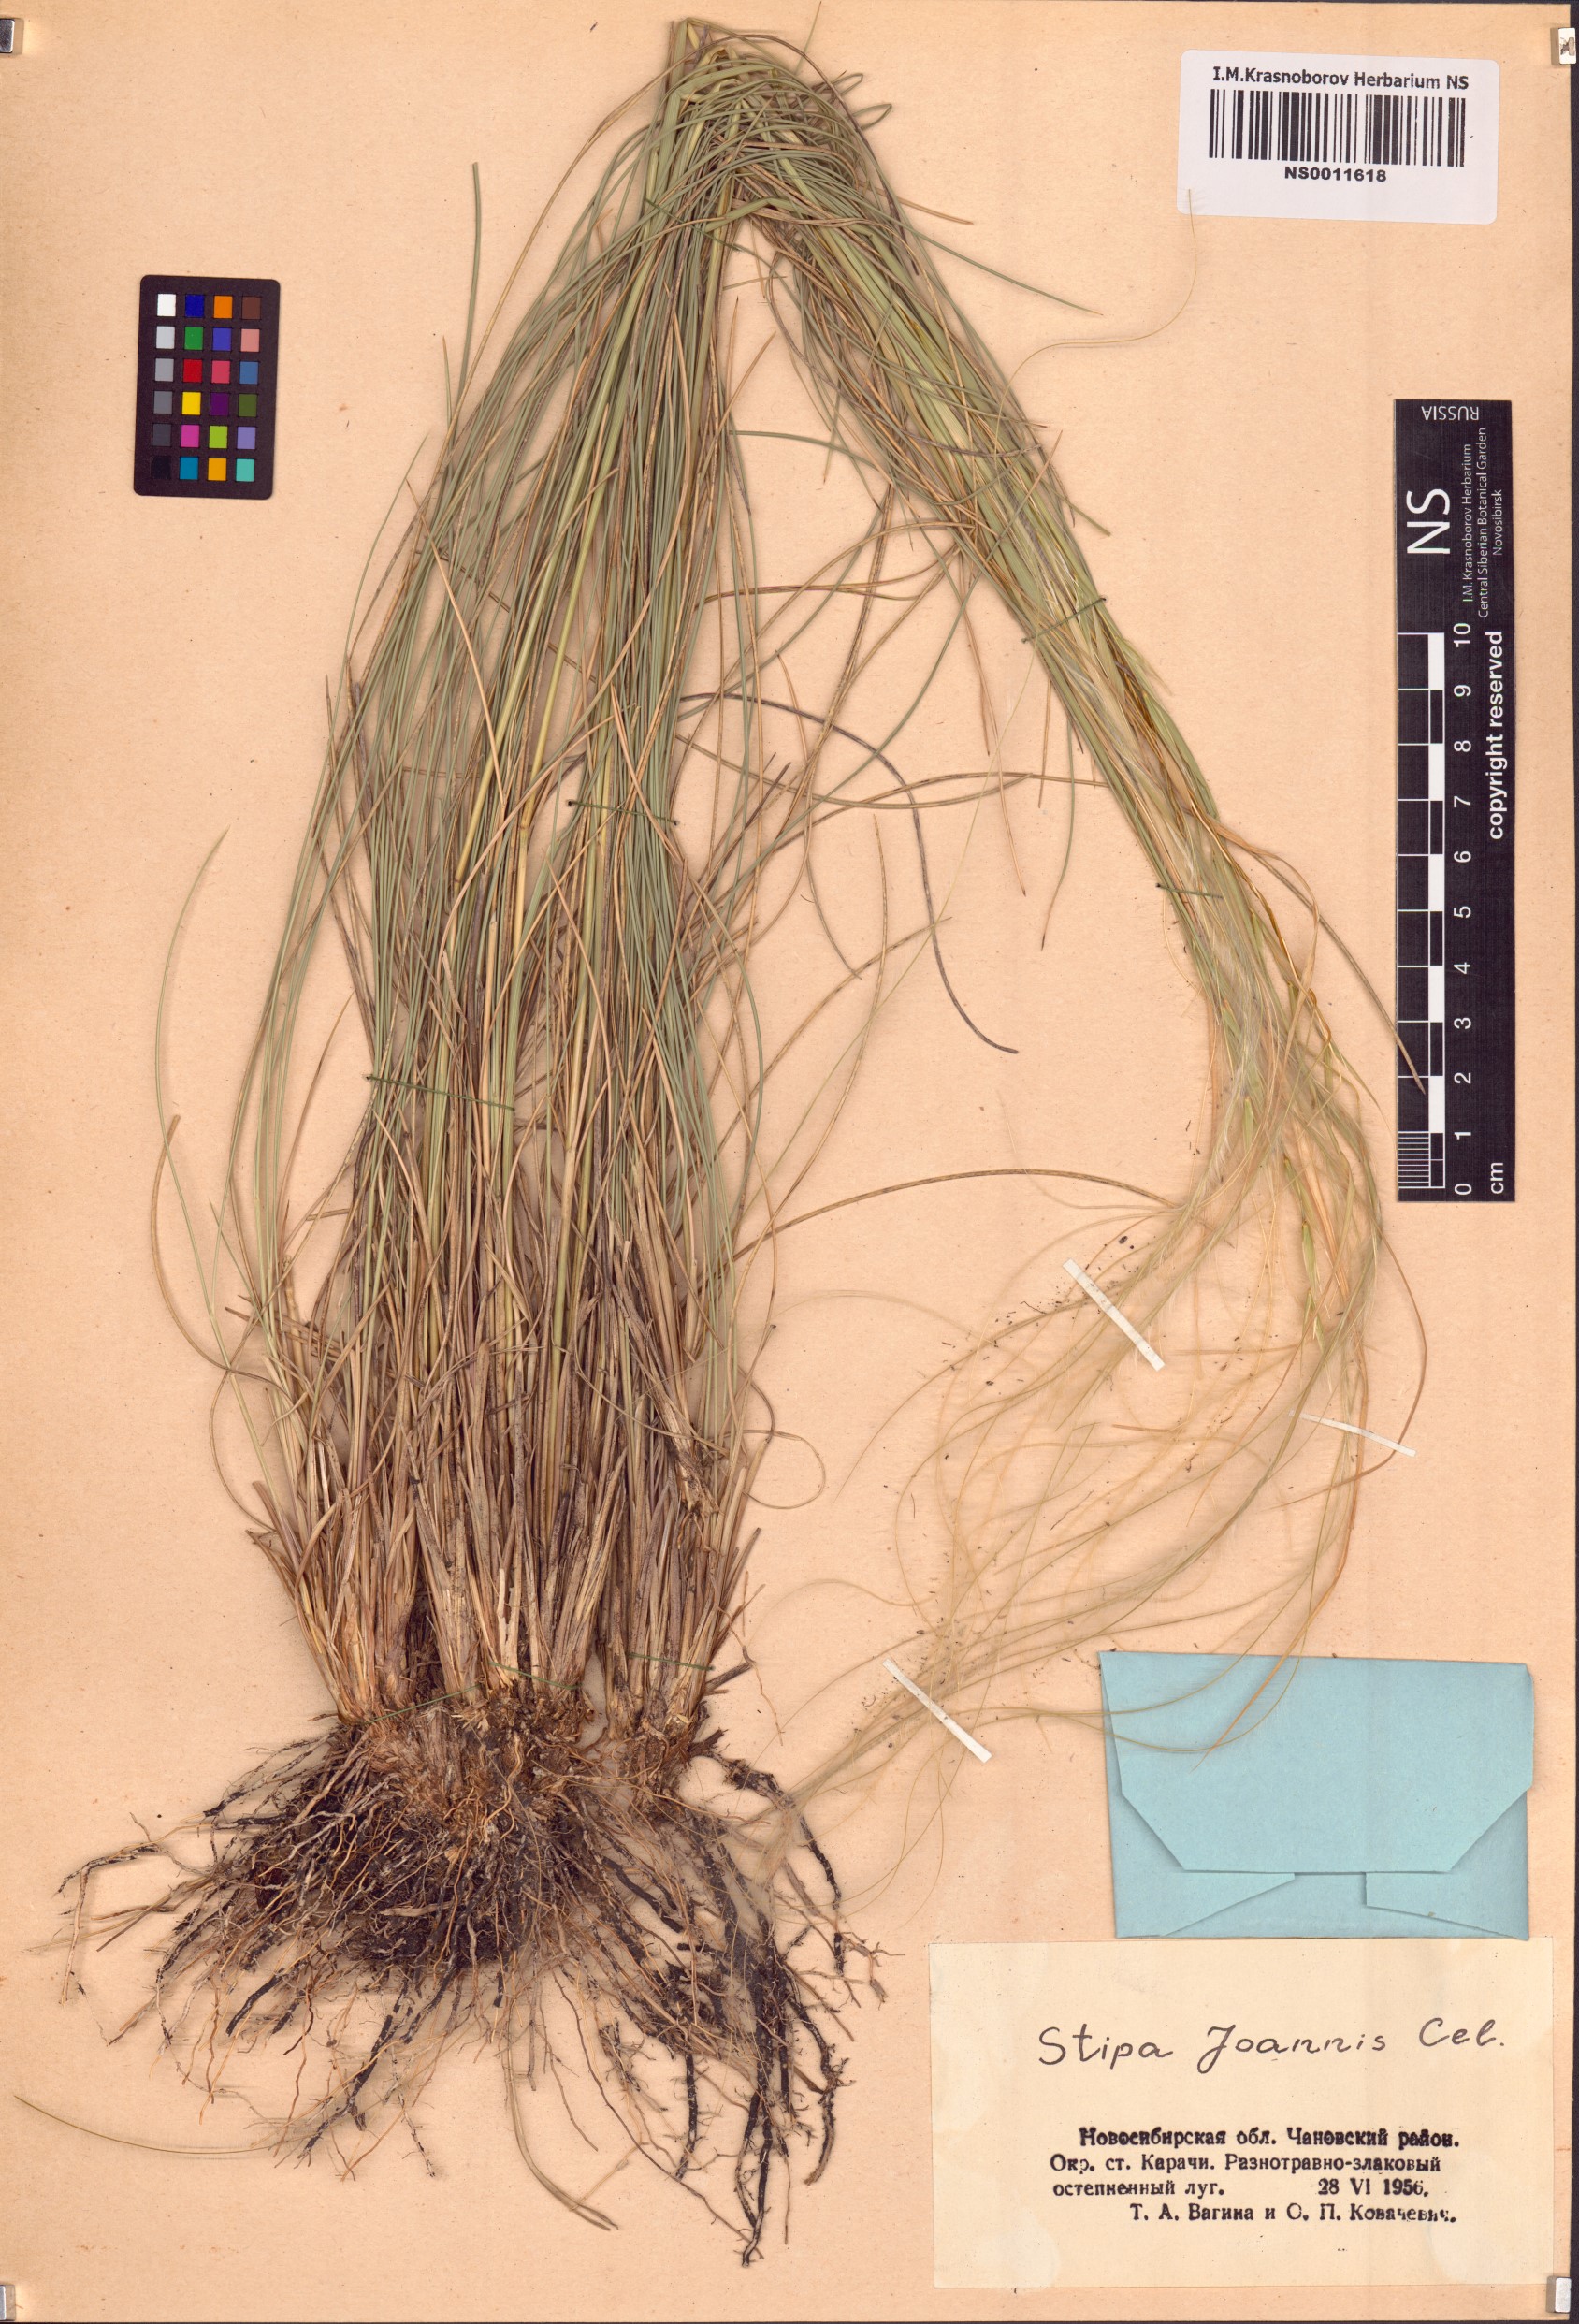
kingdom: Plantae
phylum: Tracheophyta
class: Liliopsida
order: Poales
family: Poaceae
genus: Stipa
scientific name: Stipa pennata
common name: European feather grass
